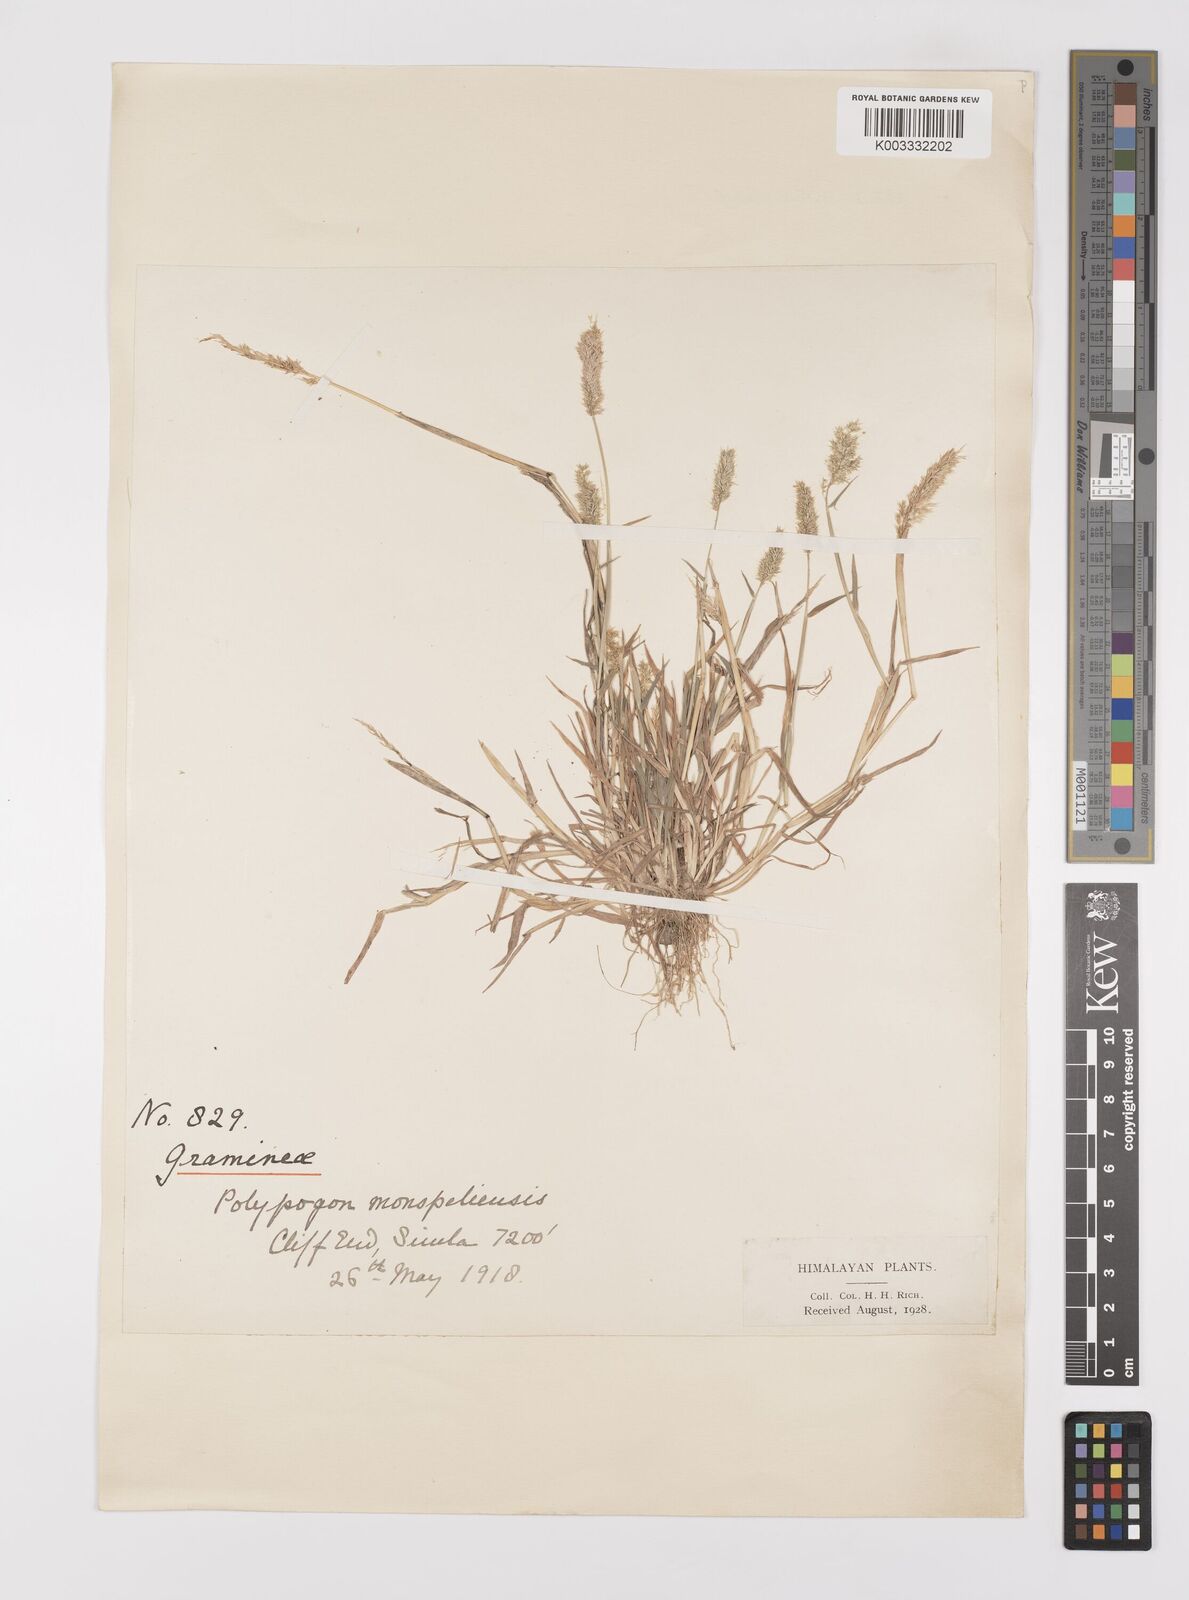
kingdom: Plantae
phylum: Tracheophyta
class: Liliopsida
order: Poales
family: Poaceae
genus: Polypogon
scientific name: Polypogon fugax
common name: Asia minor bluegrass
